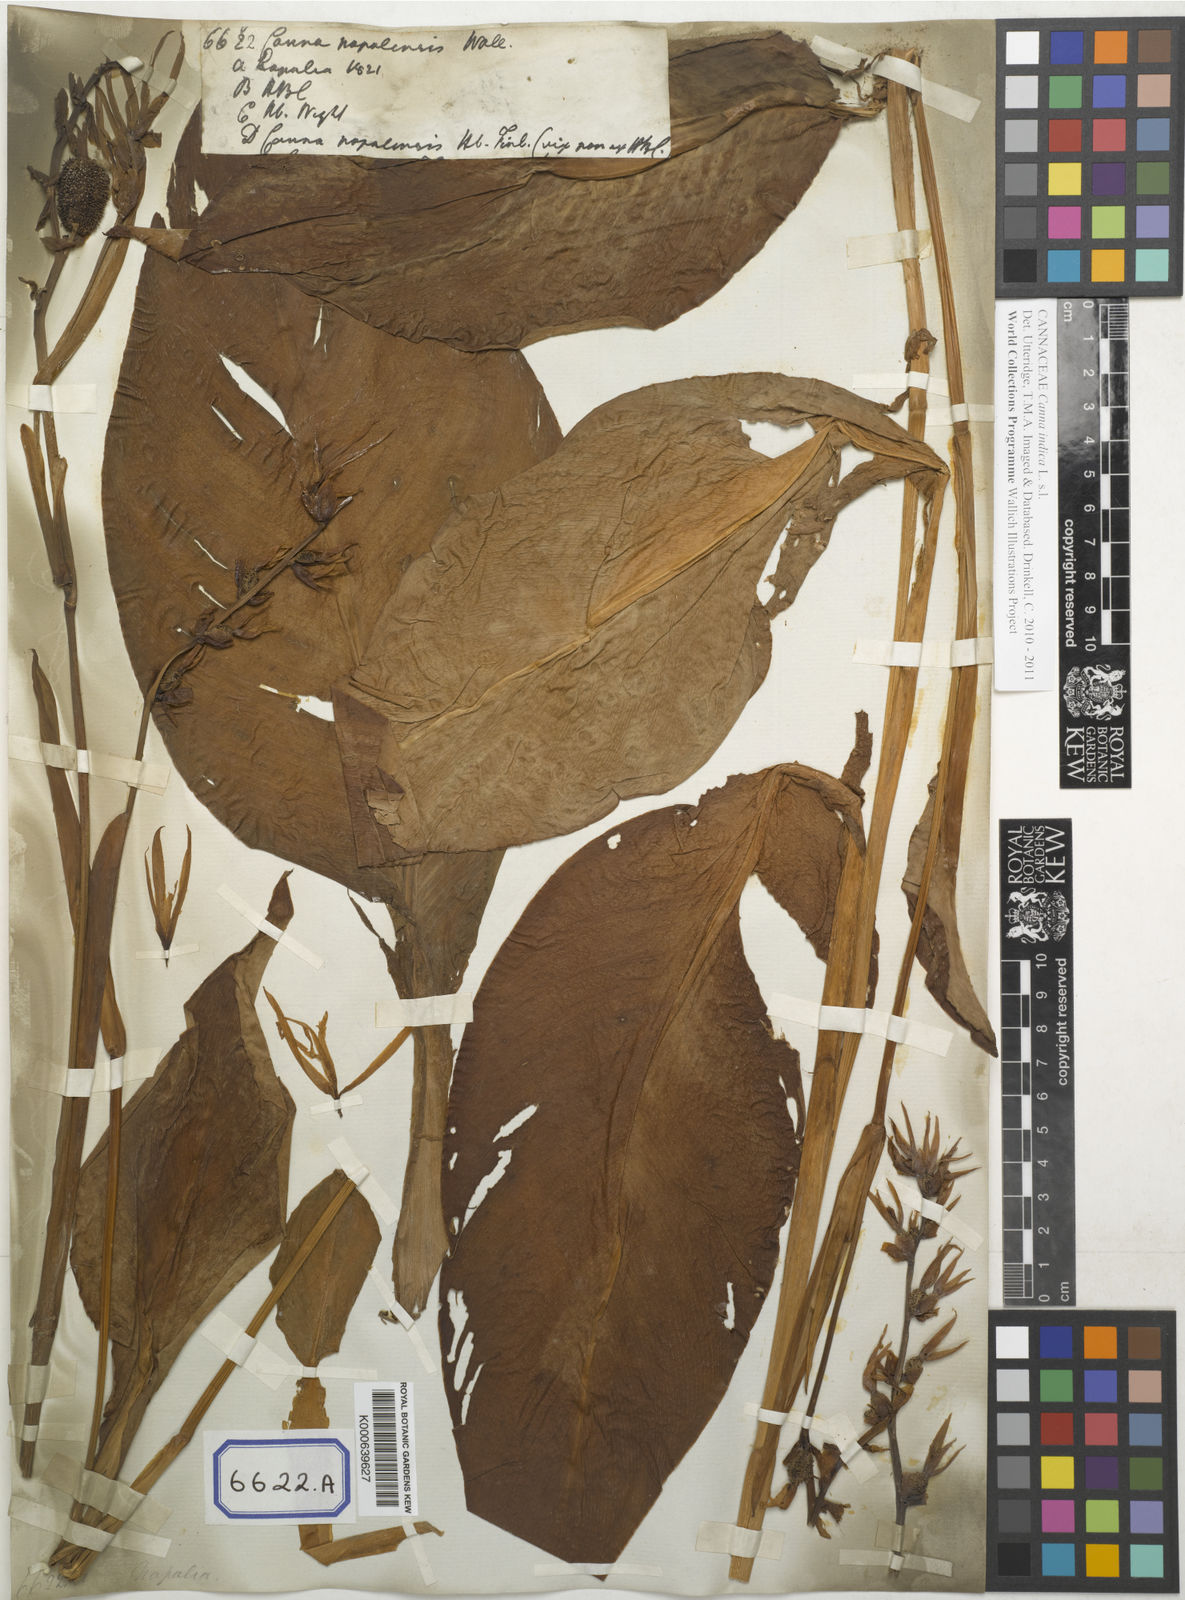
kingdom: Plantae
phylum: Tracheophyta
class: Liliopsida
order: Zingiberales
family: Cannaceae
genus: Canna
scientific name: Canna
